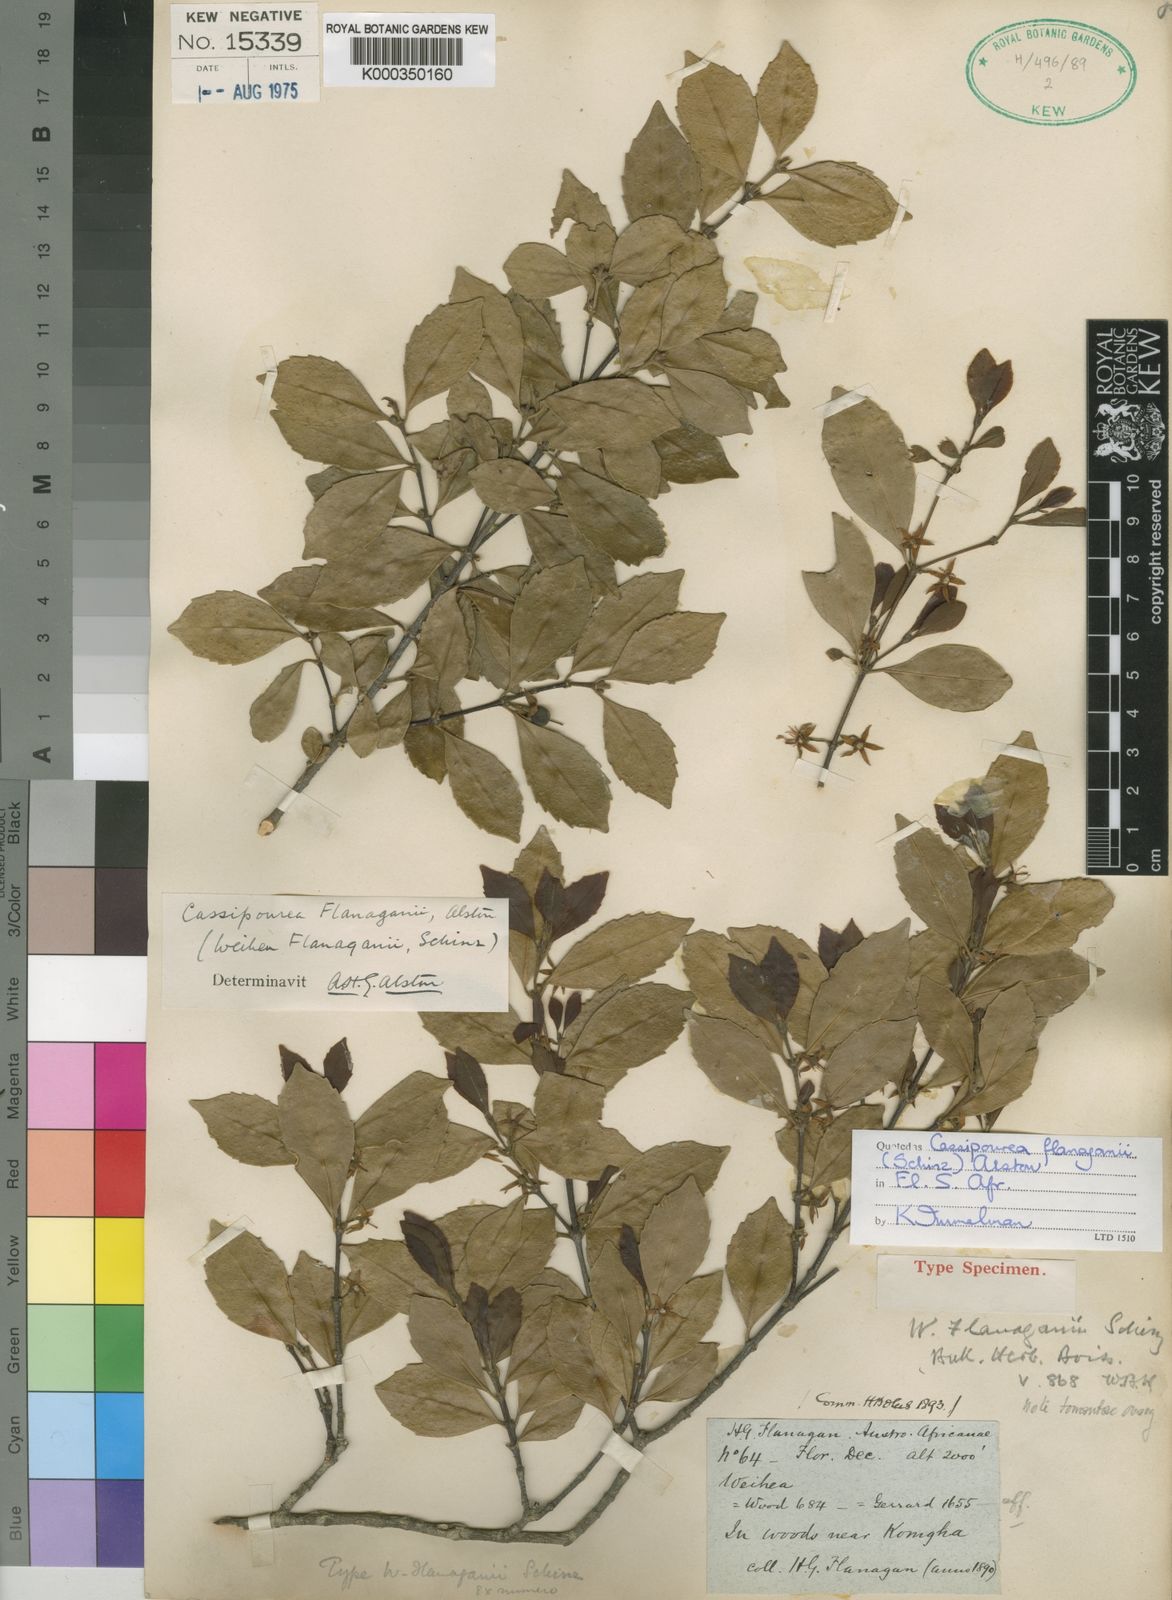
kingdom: Plantae
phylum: Tracheophyta
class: Magnoliopsida
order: Malpighiales
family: Rhizophoraceae
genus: Cassipourea
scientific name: Cassipourea flanaganii
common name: Cape onionwood
